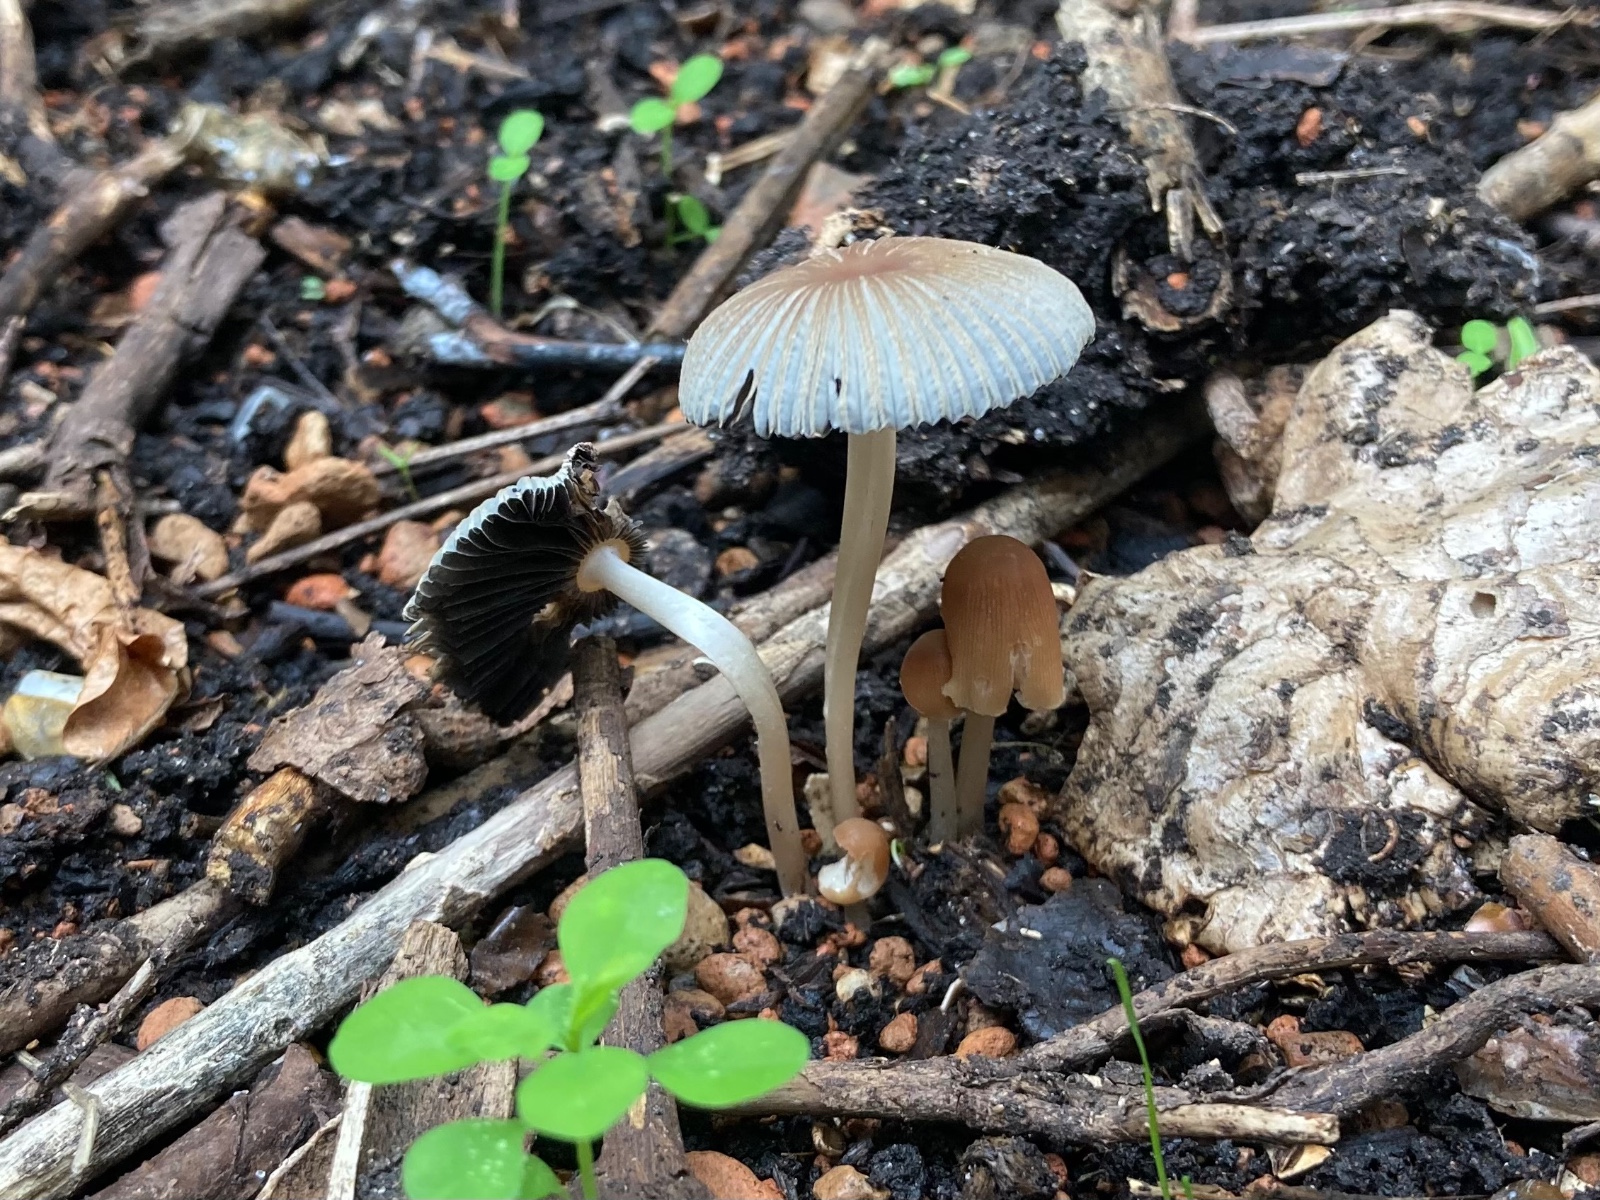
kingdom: Fungi
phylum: Basidiomycota
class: Agaricomycetes
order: Agaricales
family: Psathyrellaceae
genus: Parasola
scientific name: Parasola
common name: hjulhat
